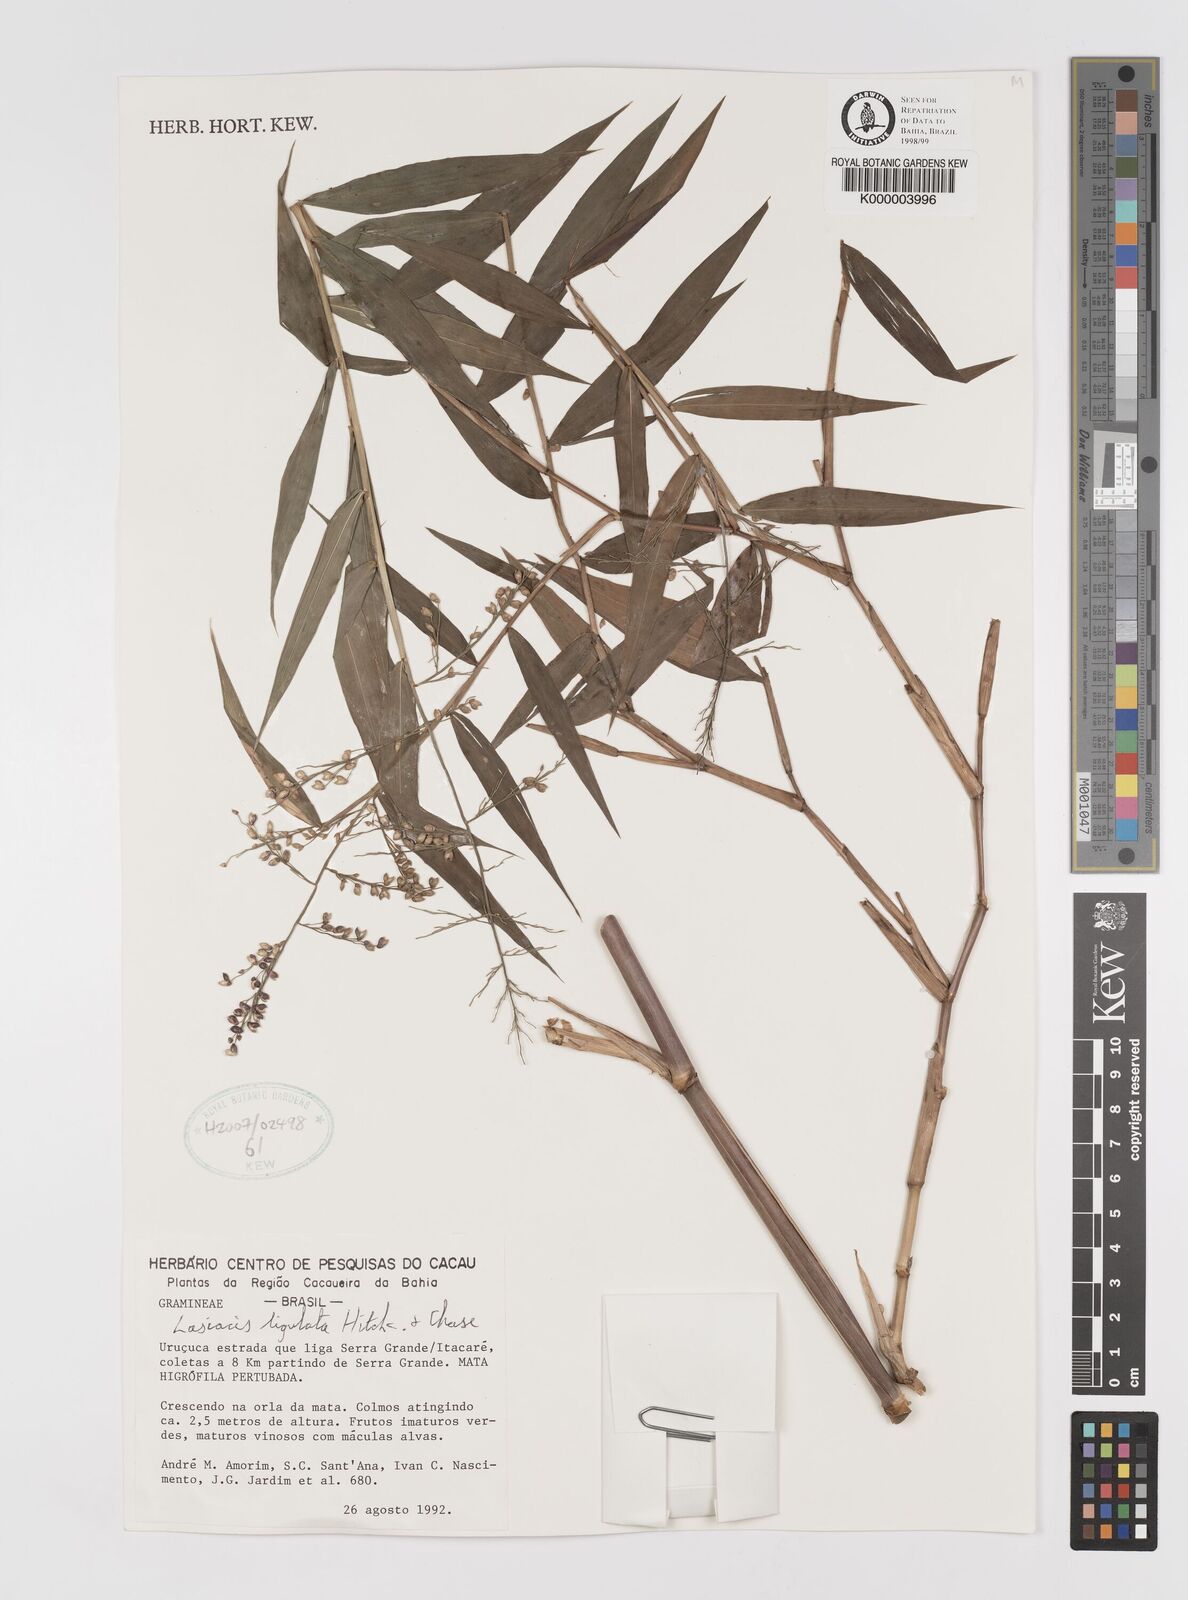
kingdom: Plantae
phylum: Tracheophyta
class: Liliopsida
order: Poales
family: Poaceae
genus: Lasiacis
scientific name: Lasiacis ligulata
